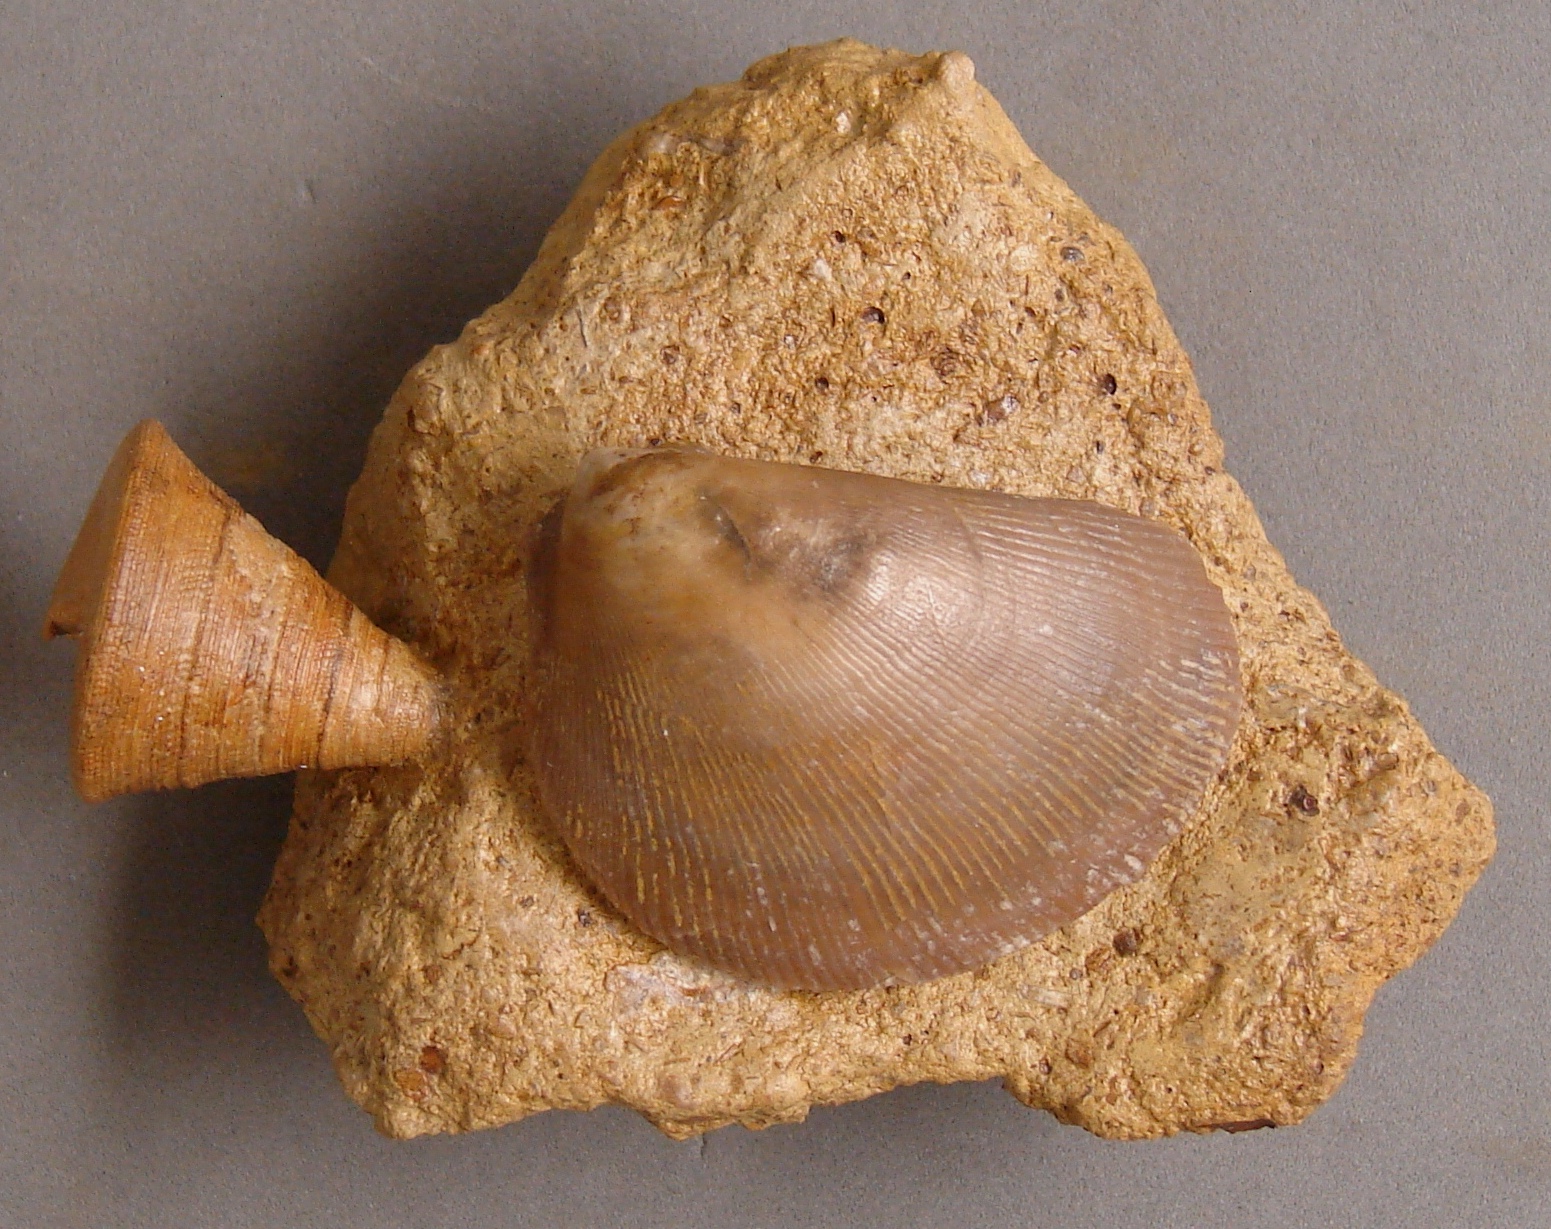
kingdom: Animalia
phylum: Mollusca
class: Gastropoda
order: Pleurotomariida
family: Pleurotomariidae
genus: Leptomaria
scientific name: Leptomaria Trochus punctatus
